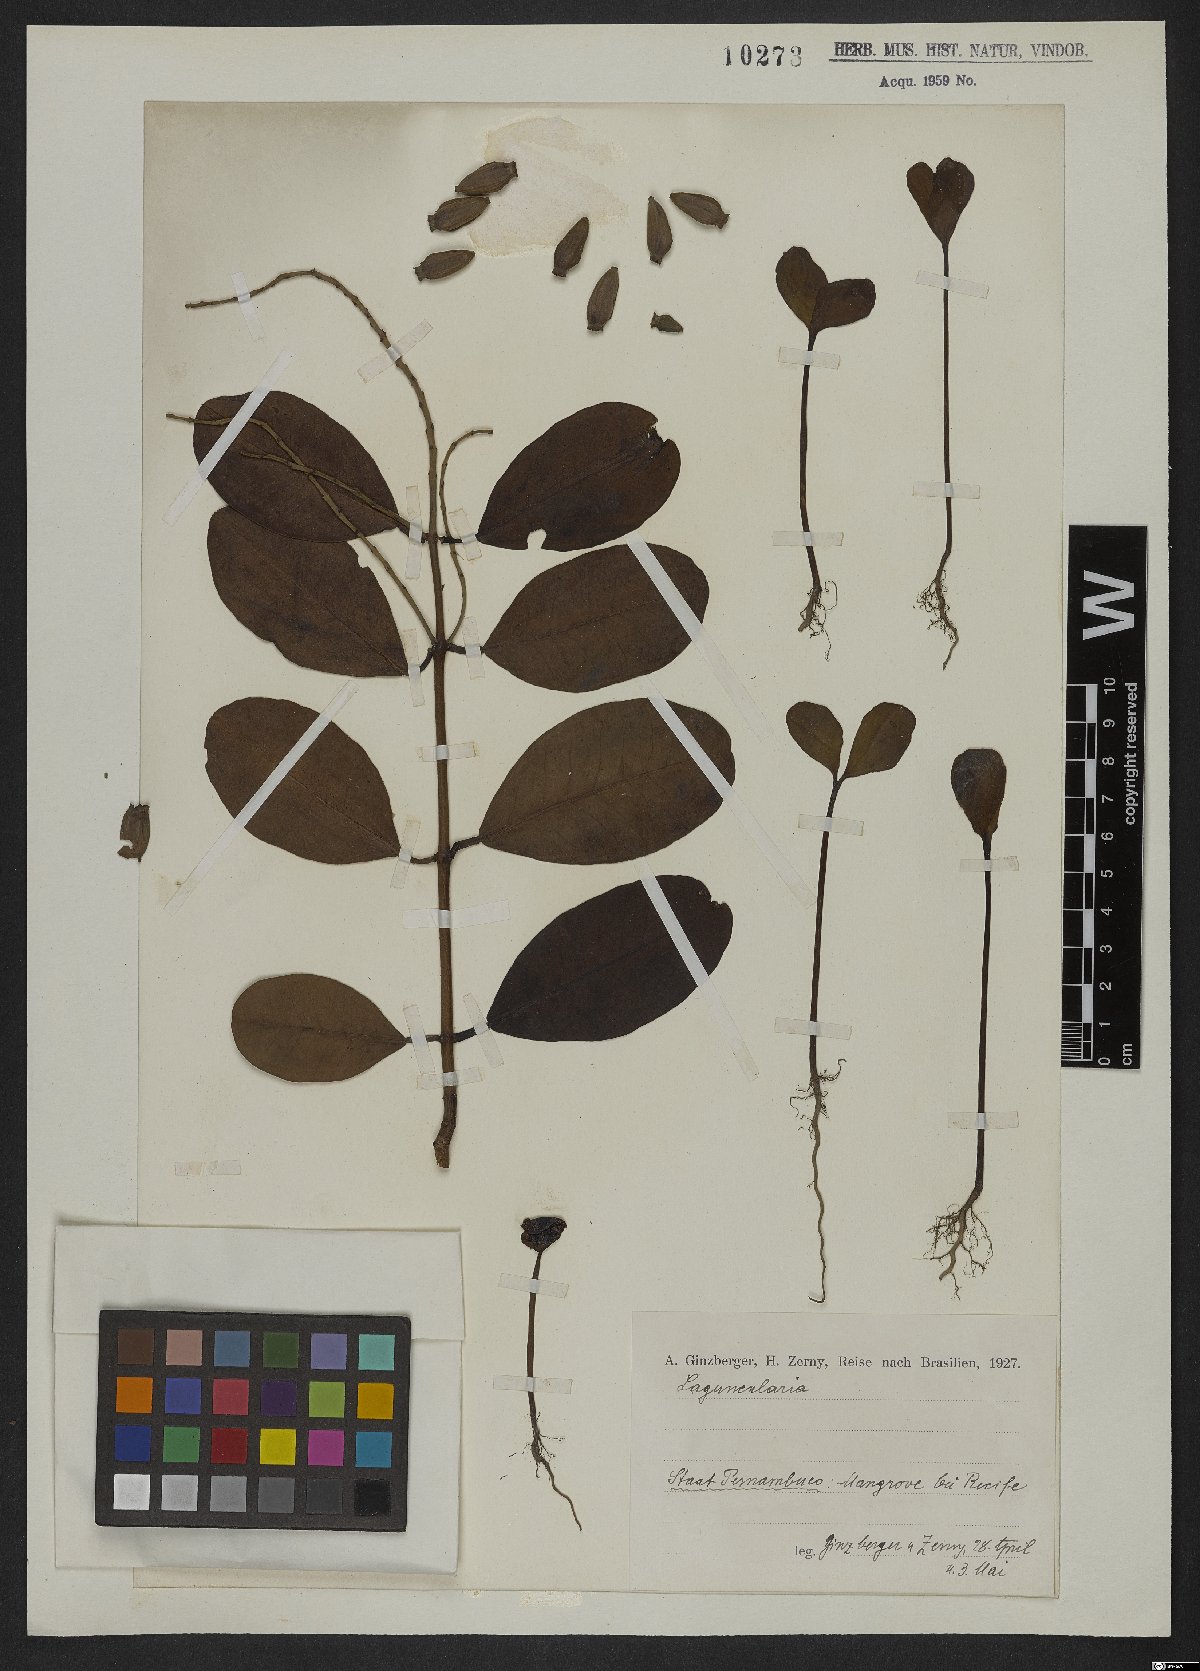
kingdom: Plantae
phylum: Tracheophyta
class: Magnoliopsida
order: Myrtales
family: Combretaceae
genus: Laguncularia
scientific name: Laguncularia racemosa
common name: White mangrove
